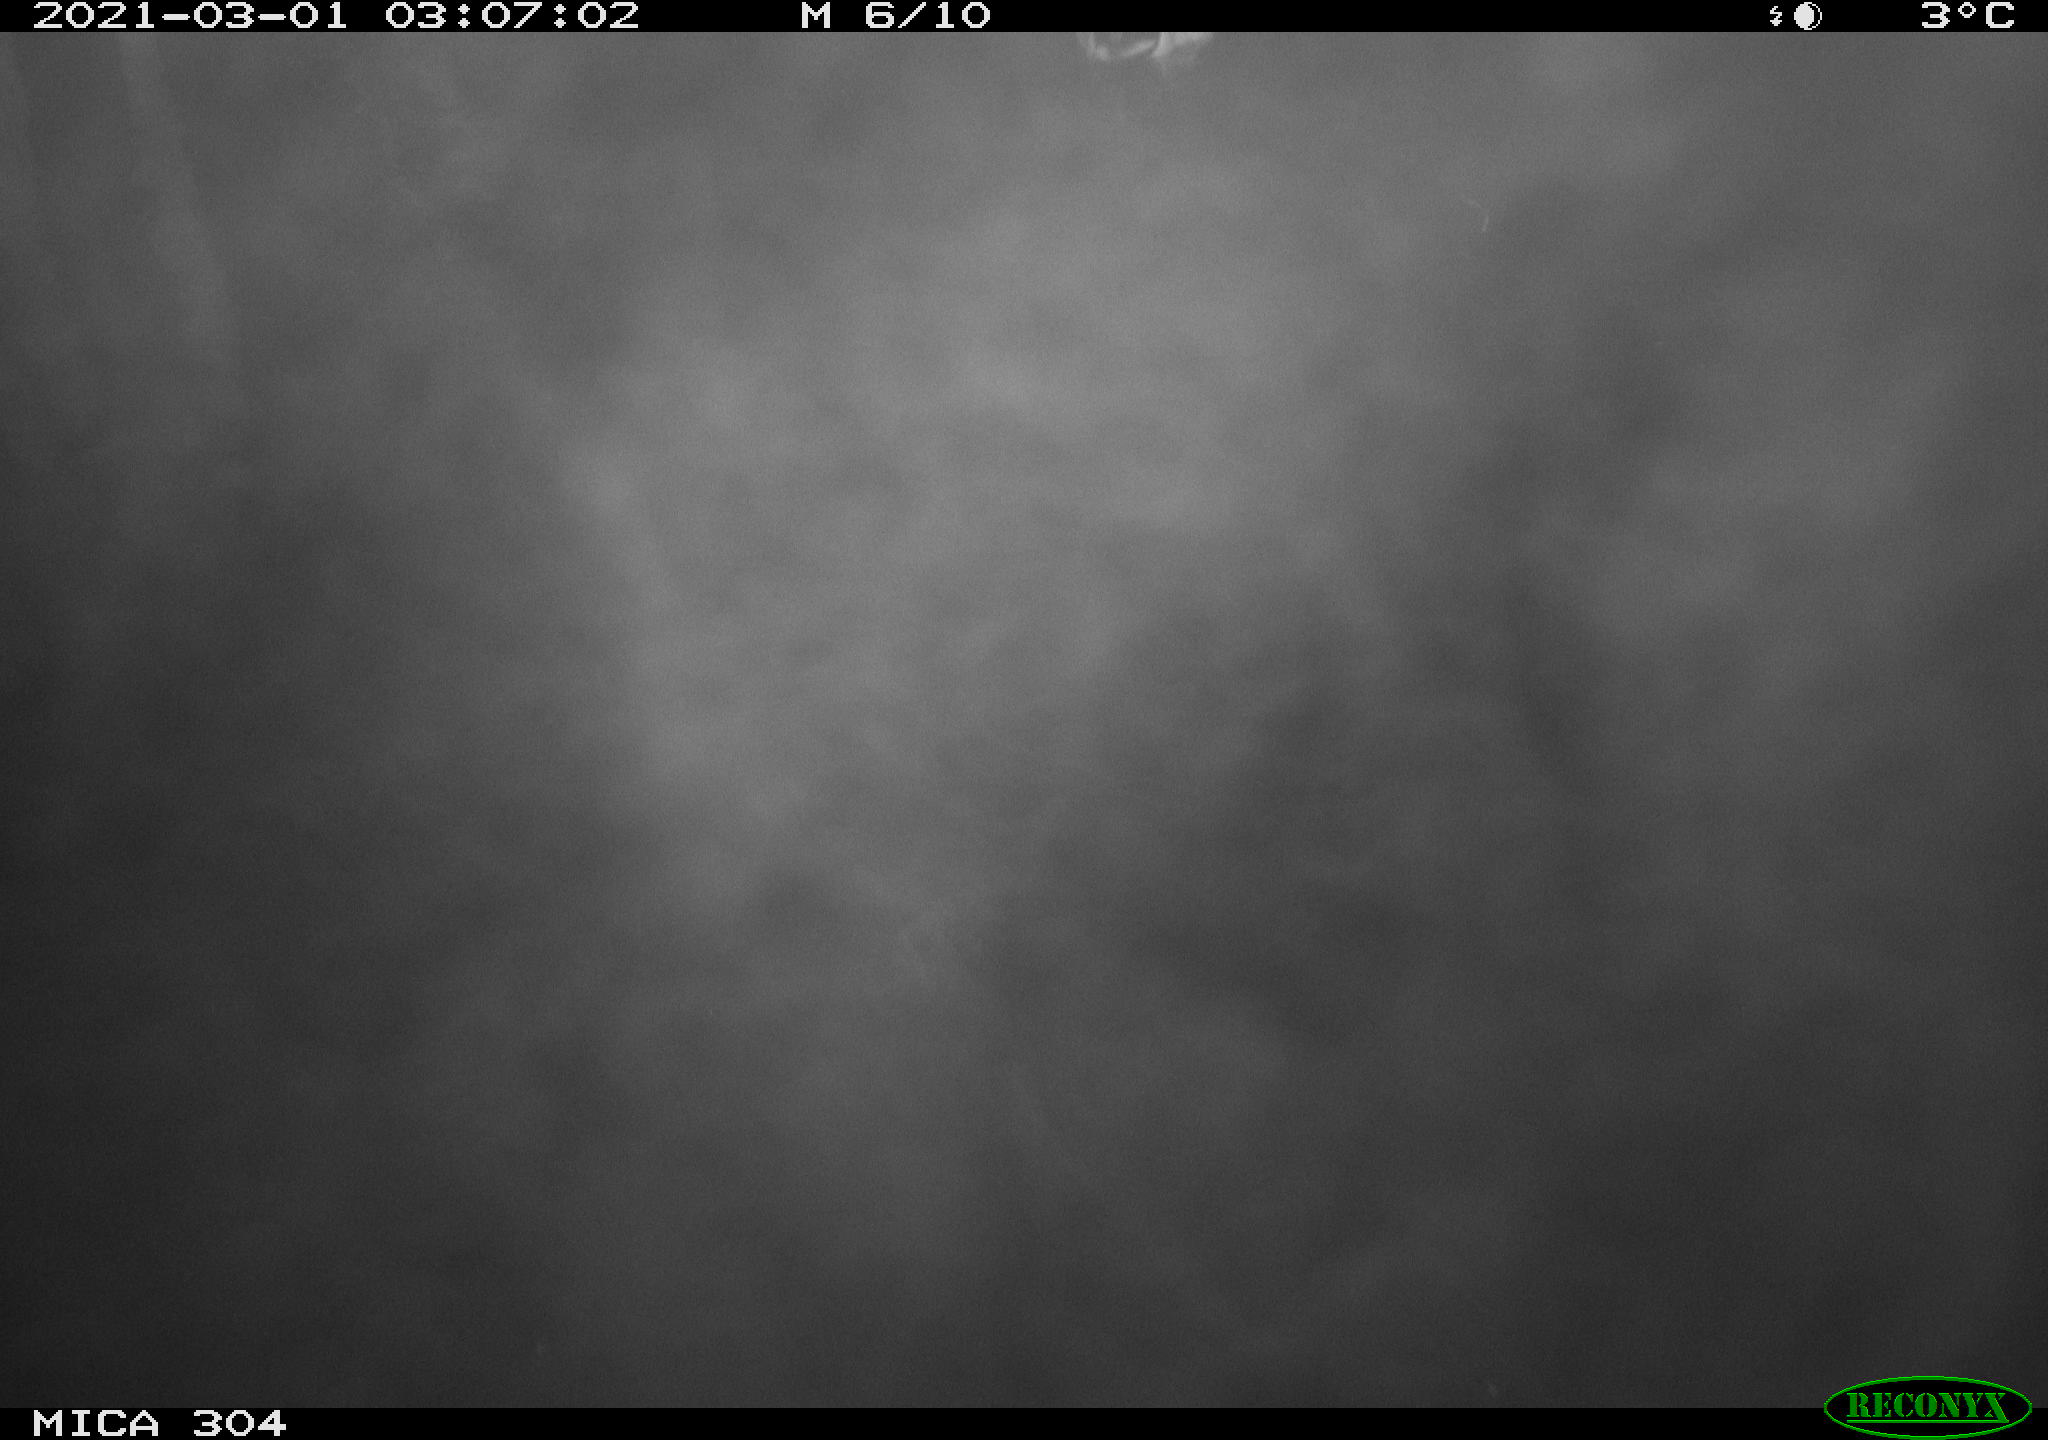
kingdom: Animalia
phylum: Chordata
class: Aves
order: Anseriformes
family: Anatidae
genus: Anas
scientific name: Anas platyrhynchos
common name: Mallard
